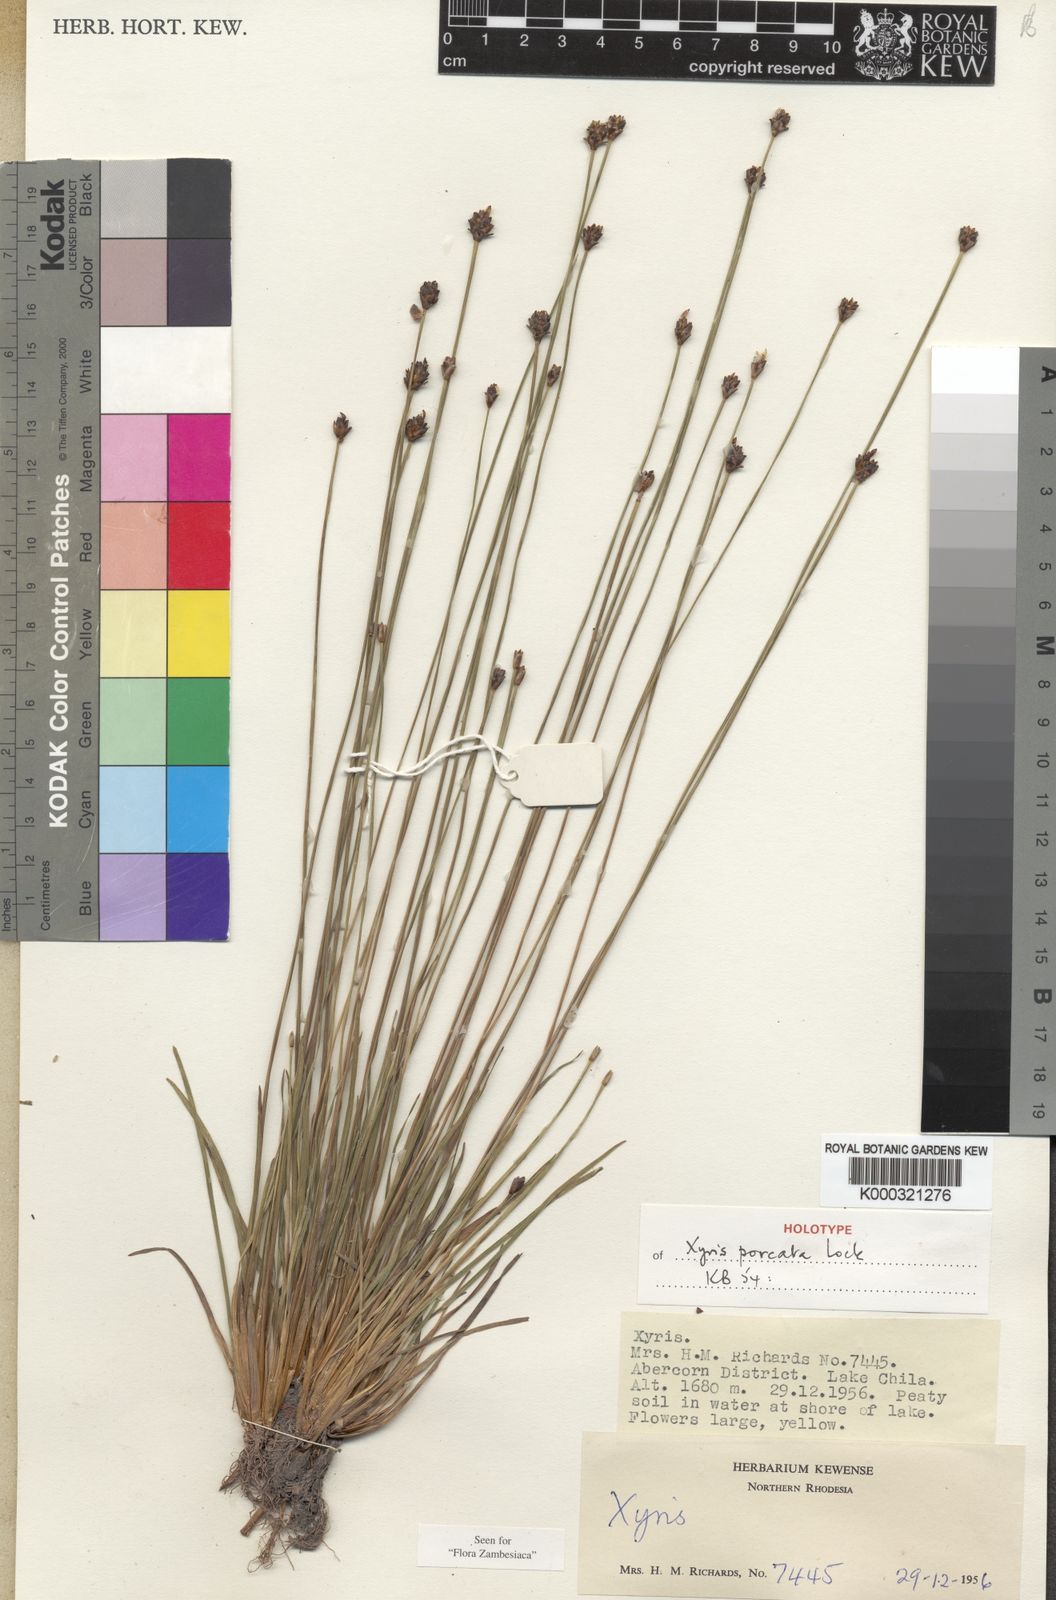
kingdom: Plantae
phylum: Tracheophyta
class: Liliopsida
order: Poales
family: Xyridaceae
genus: Xyris
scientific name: Xyris porcata
